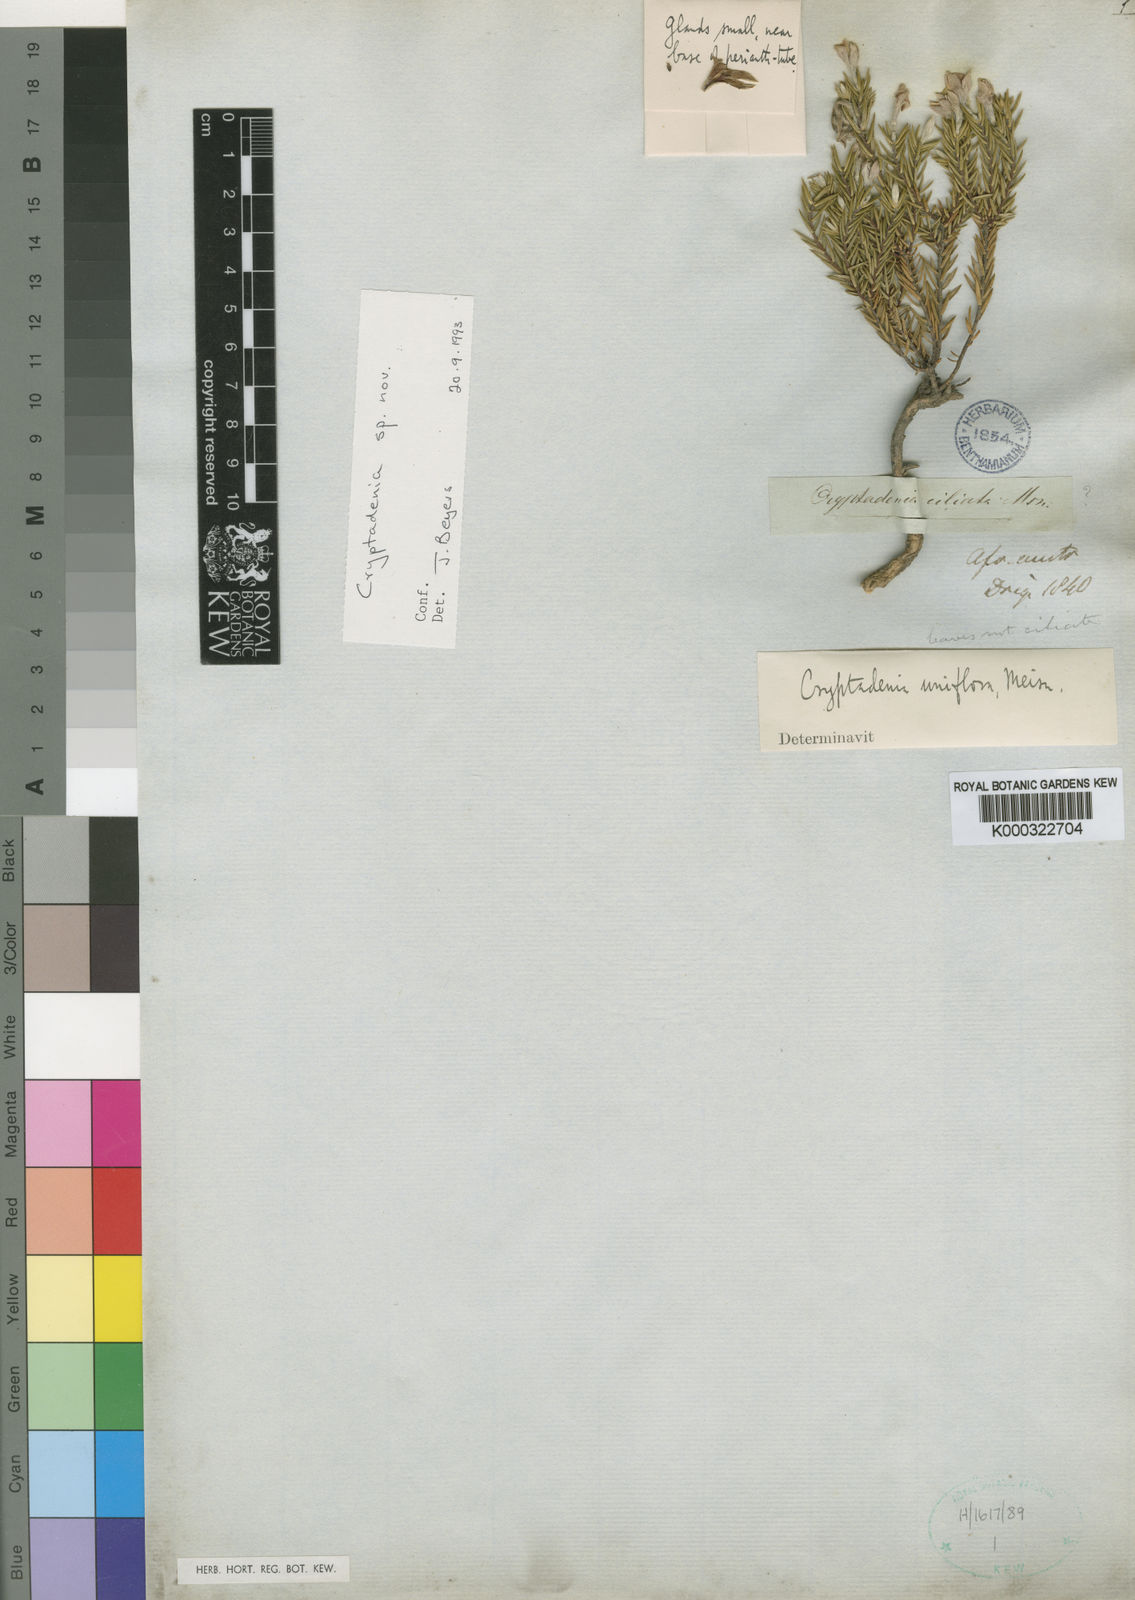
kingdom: Plantae
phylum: Tracheophyta
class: Magnoliopsida
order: Malvales
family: Thymelaeaceae
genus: Lachnaea
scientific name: Lachnaea uniflora
